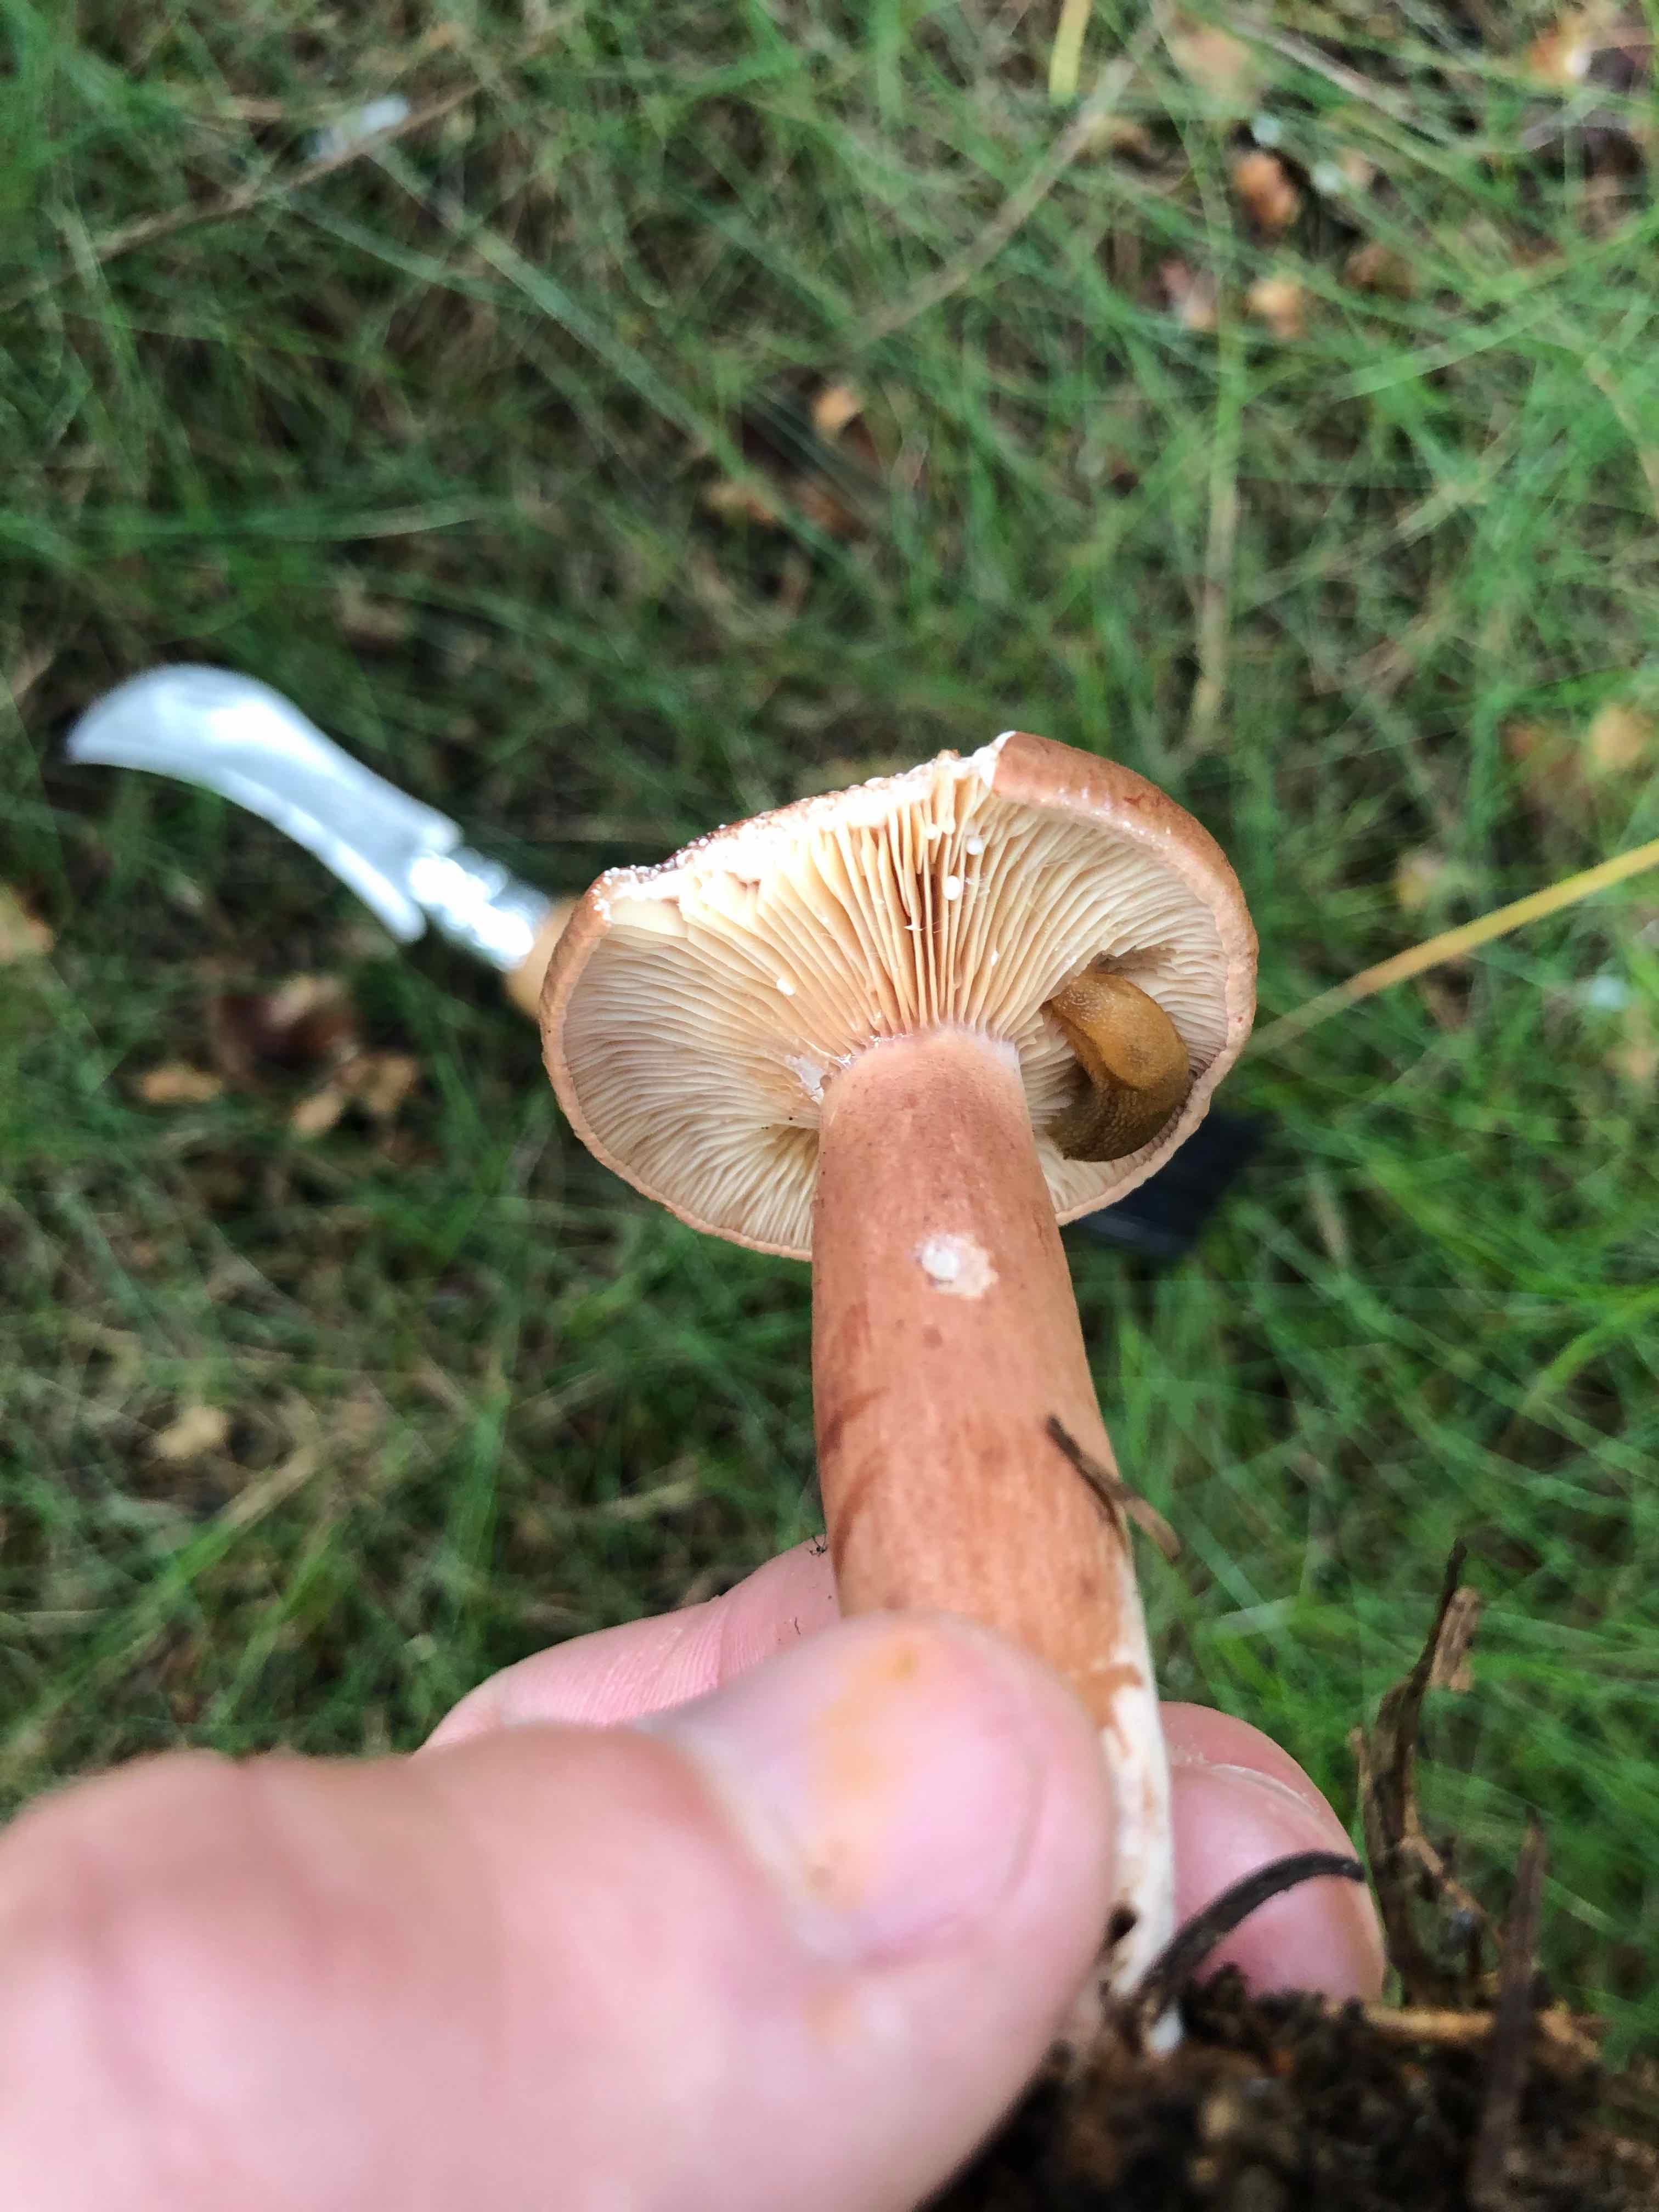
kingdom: Fungi
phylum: Basidiomycota
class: Agaricomycetes
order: Russulales
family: Russulaceae
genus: Lactarius
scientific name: Lactarius rufus
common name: rødbrun mælkehat
